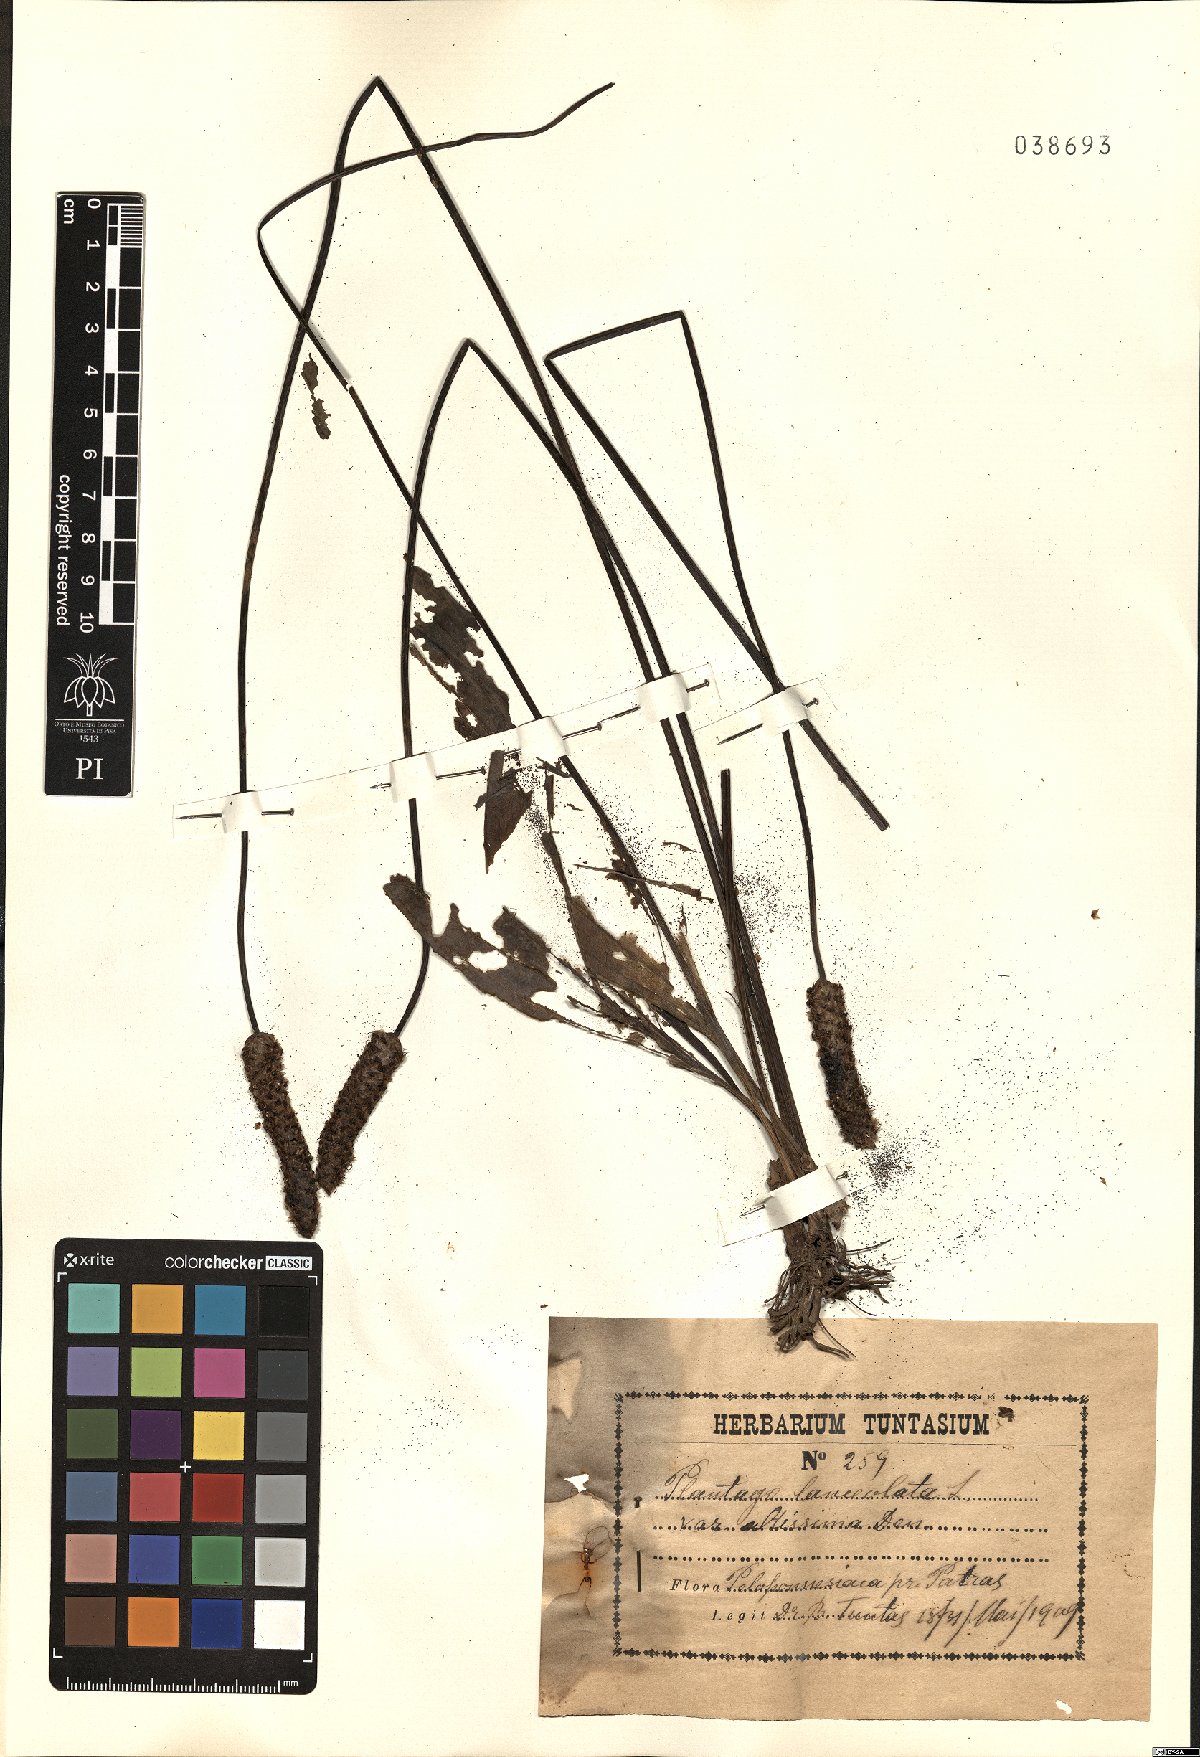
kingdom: Plantae
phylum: Tracheophyta
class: Magnoliopsida
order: Lamiales
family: Plantaginaceae
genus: Plantago
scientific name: Plantago altissima
